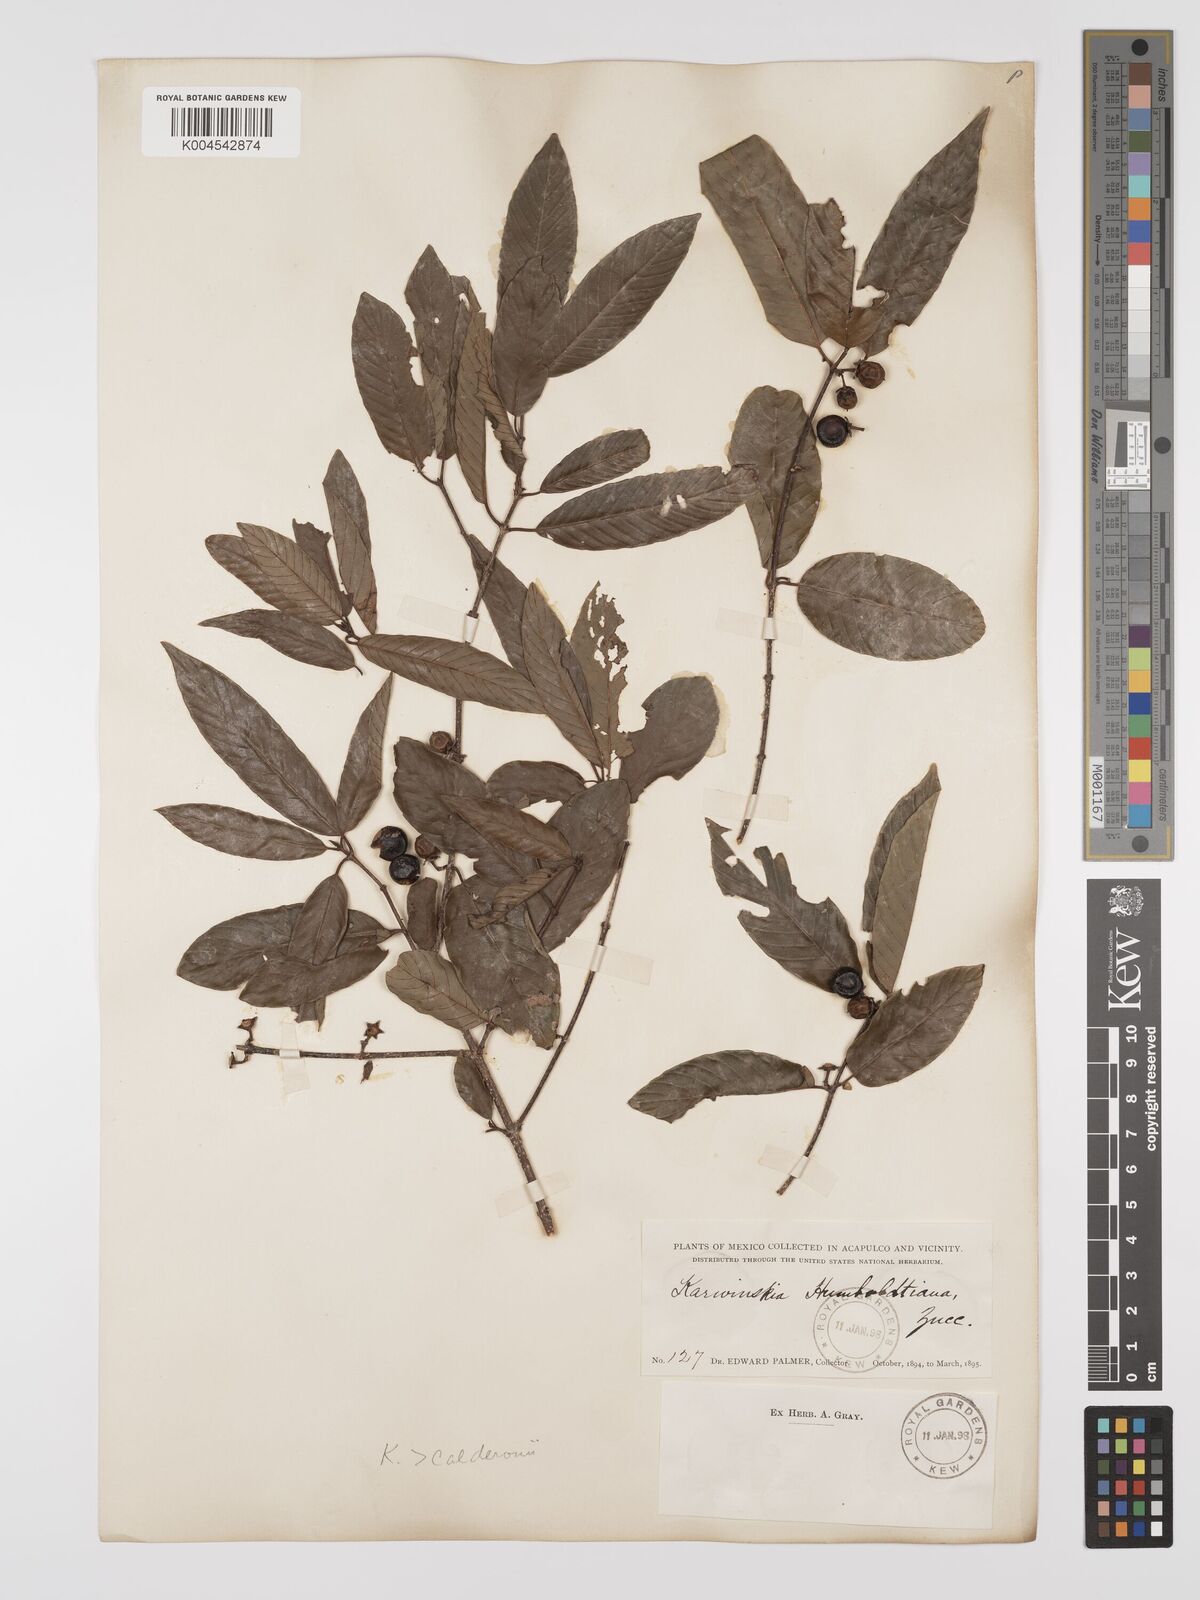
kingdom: Plantae
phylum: Tracheophyta
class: Magnoliopsida
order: Rosales
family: Rhamnaceae
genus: Karwinskia
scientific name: Karwinskia humboldtiana
